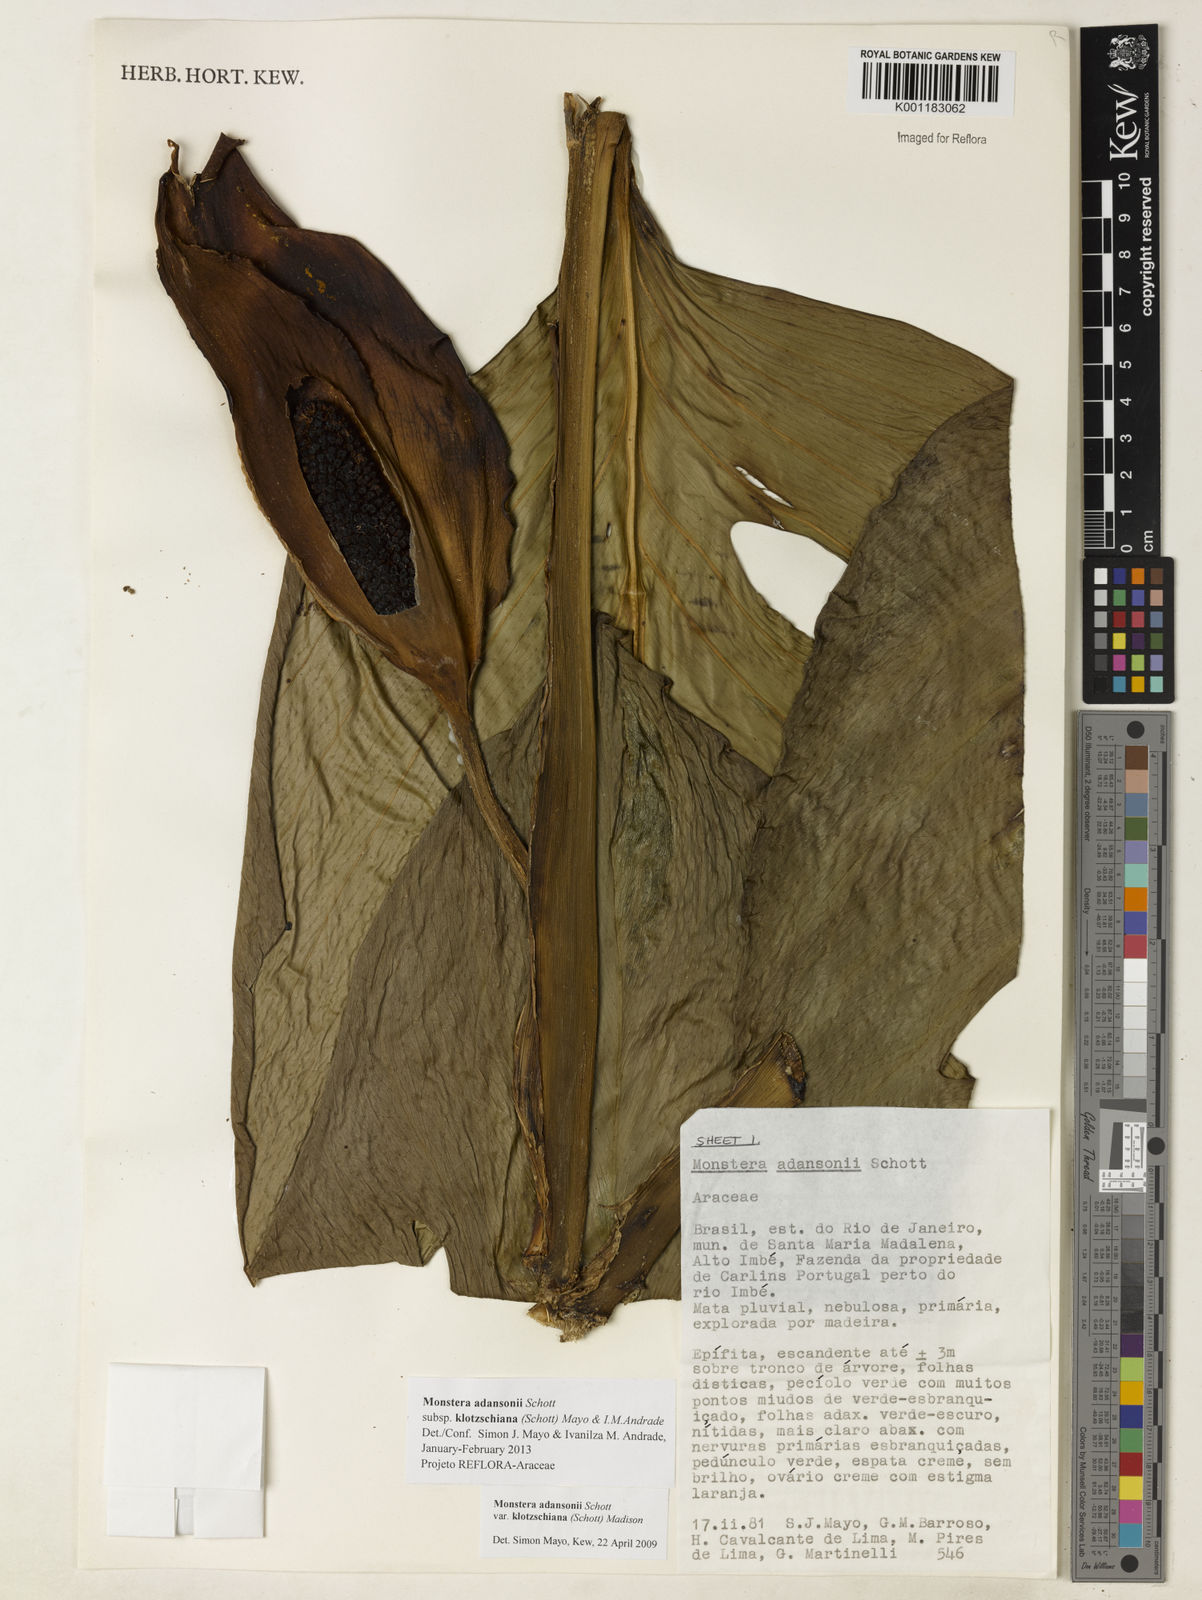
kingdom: Plantae
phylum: Tracheophyta
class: Liliopsida
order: Alismatales
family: Araceae
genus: Monstera
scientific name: Monstera adansonii
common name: Tarovine
